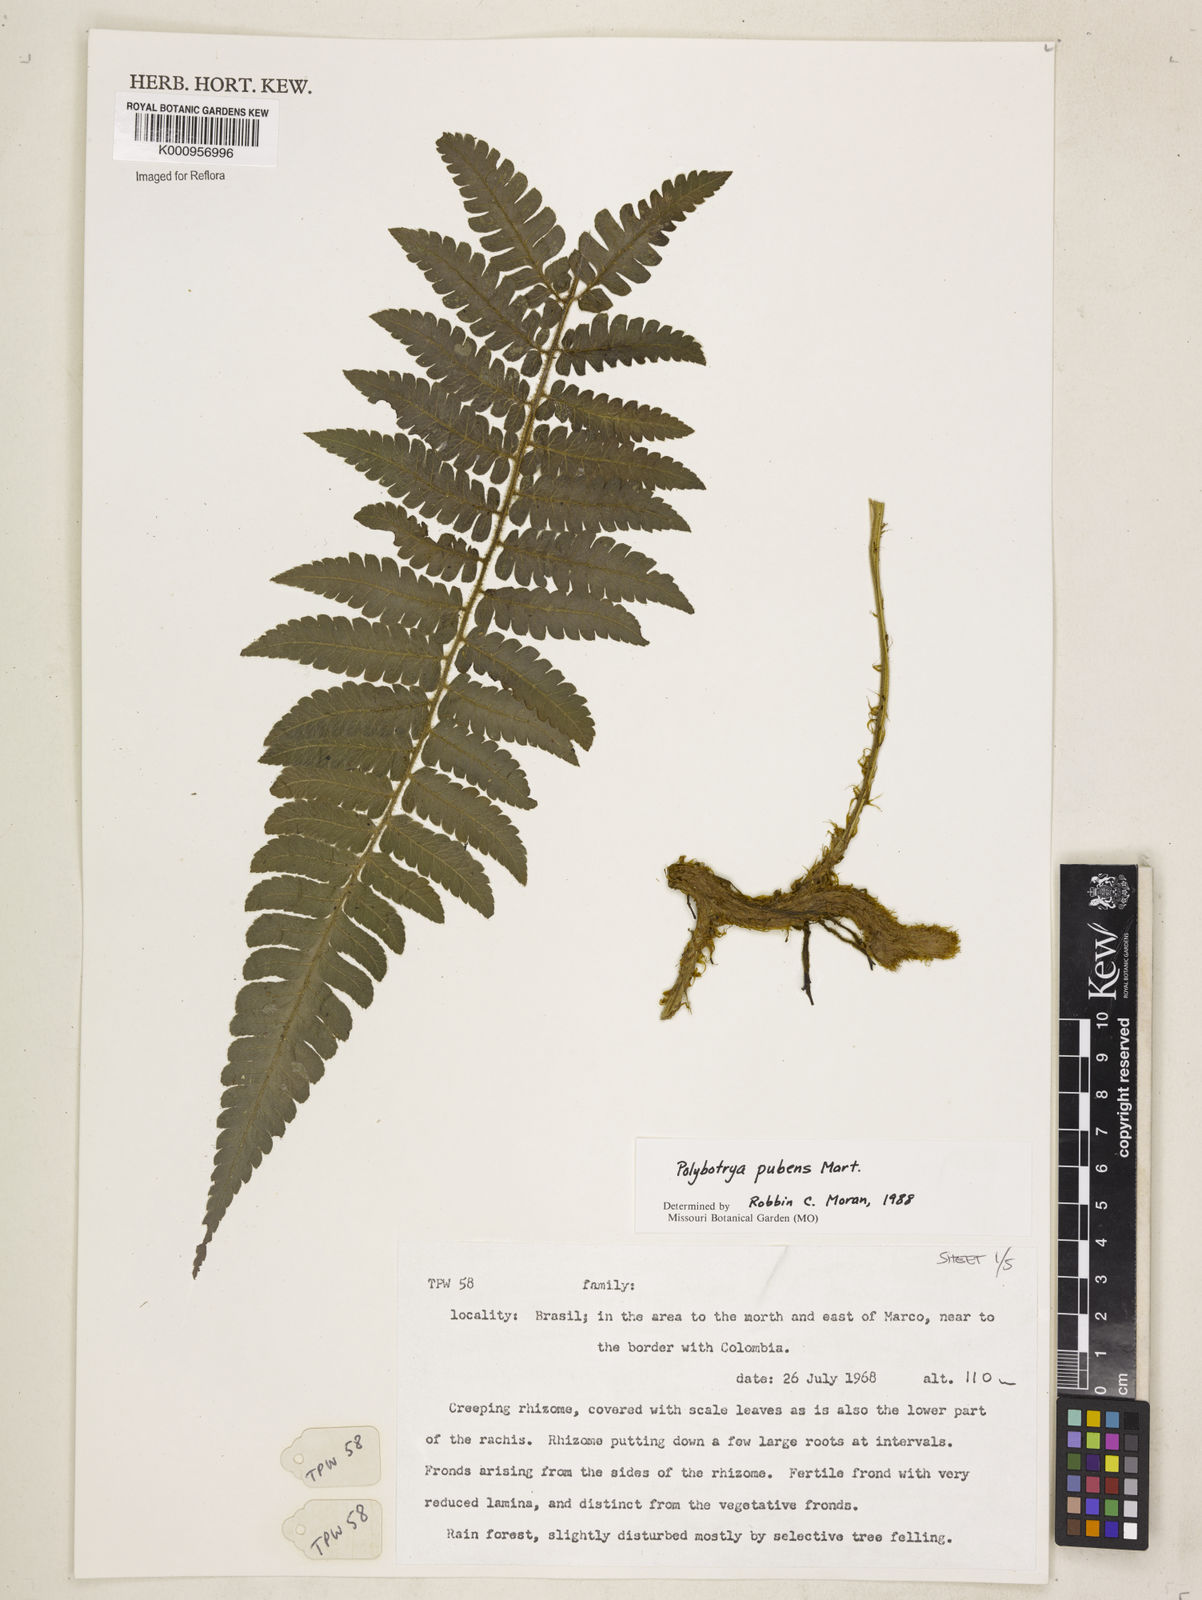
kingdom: Plantae
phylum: Tracheophyta
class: Polypodiopsida
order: Polypodiales
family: Dryopteridaceae
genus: Polybotrya
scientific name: Polybotrya pubens
